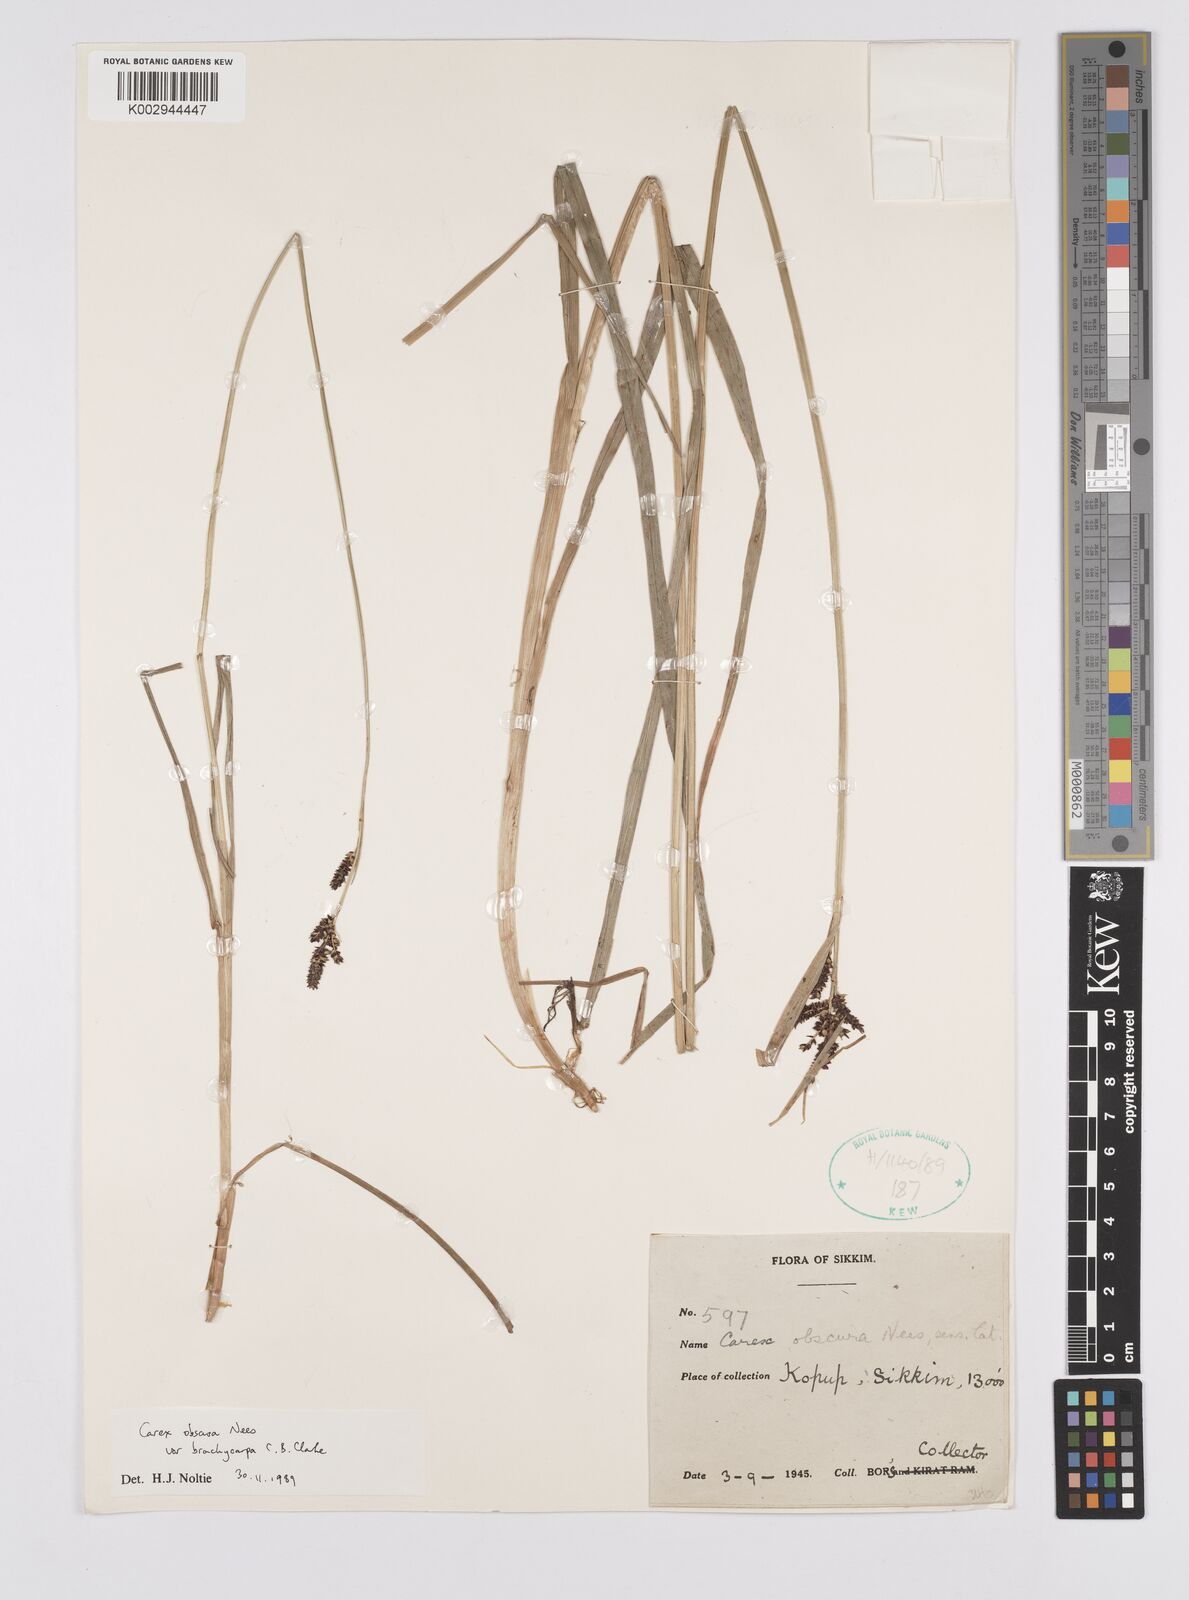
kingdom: Plantae
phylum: Tracheophyta
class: Liliopsida
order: Poales
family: Cyperaceae
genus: Carex
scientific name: Carex obscura
